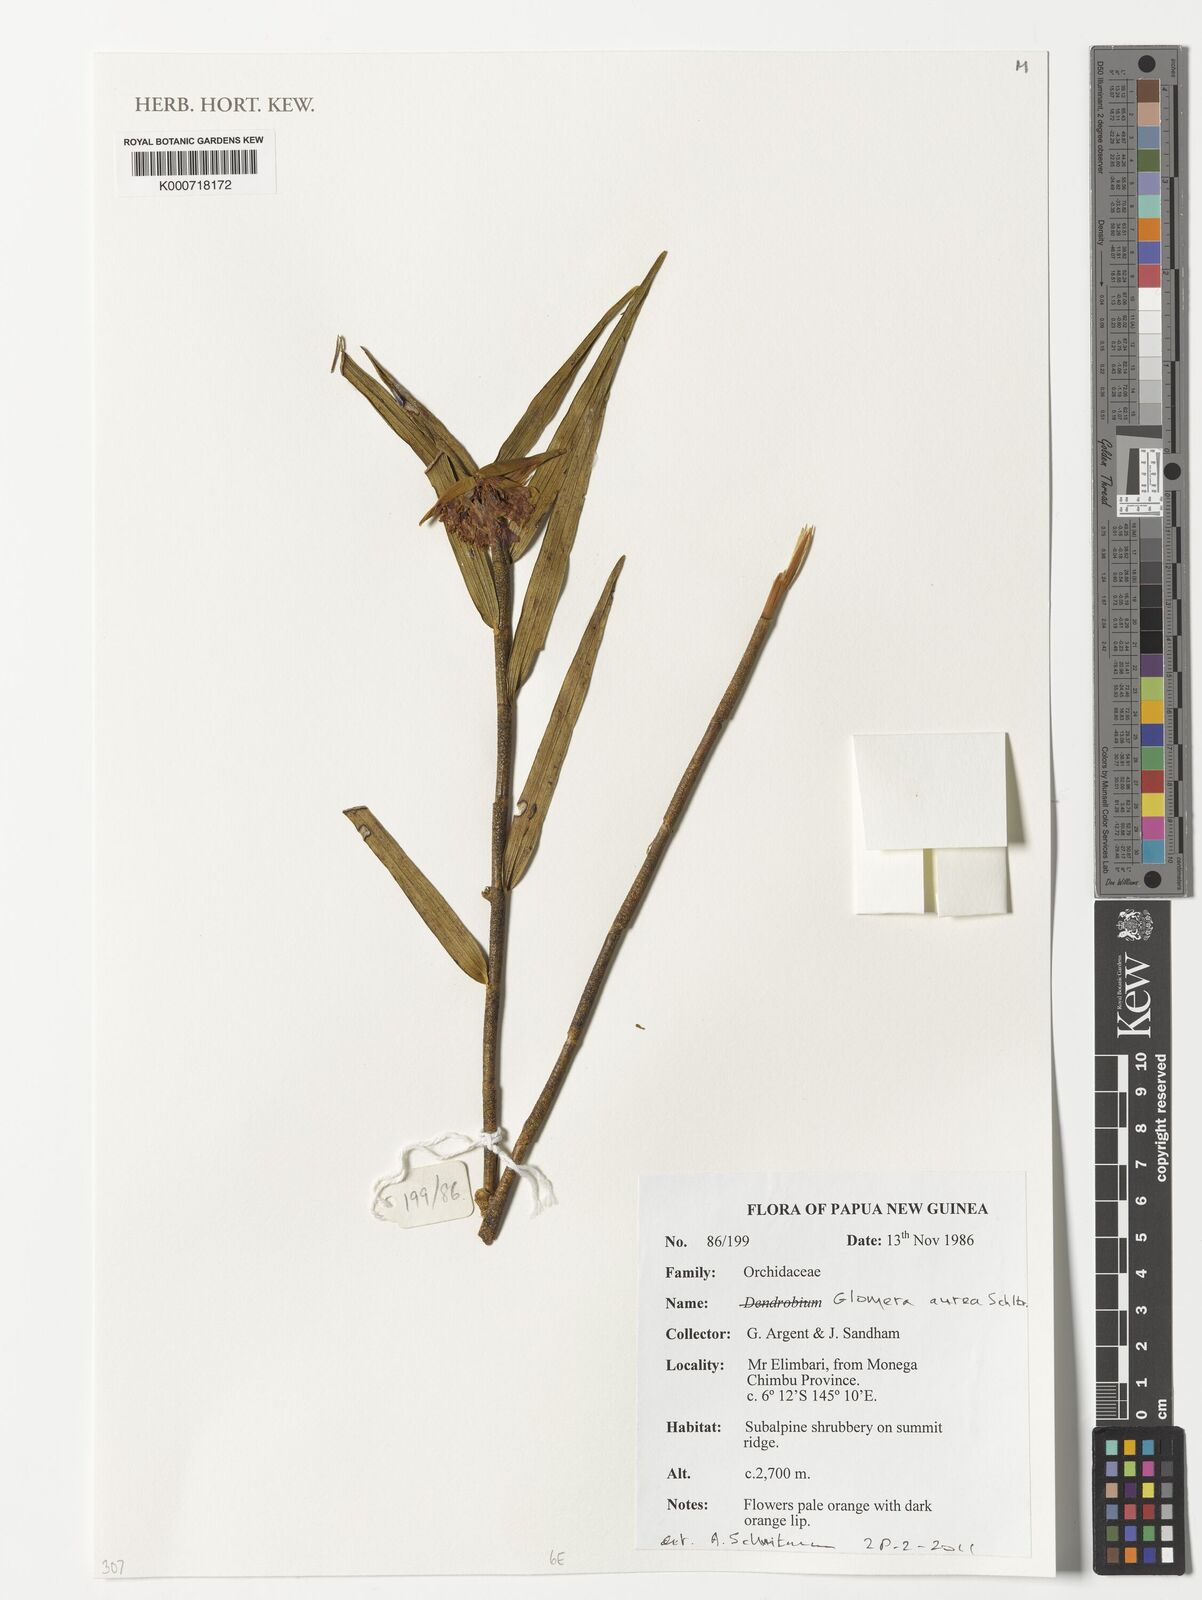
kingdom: Plantae
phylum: Tracheophyta
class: Liliopsida
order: Asparagales
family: Orchidaceae
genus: Glomera
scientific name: Glomera aurea
